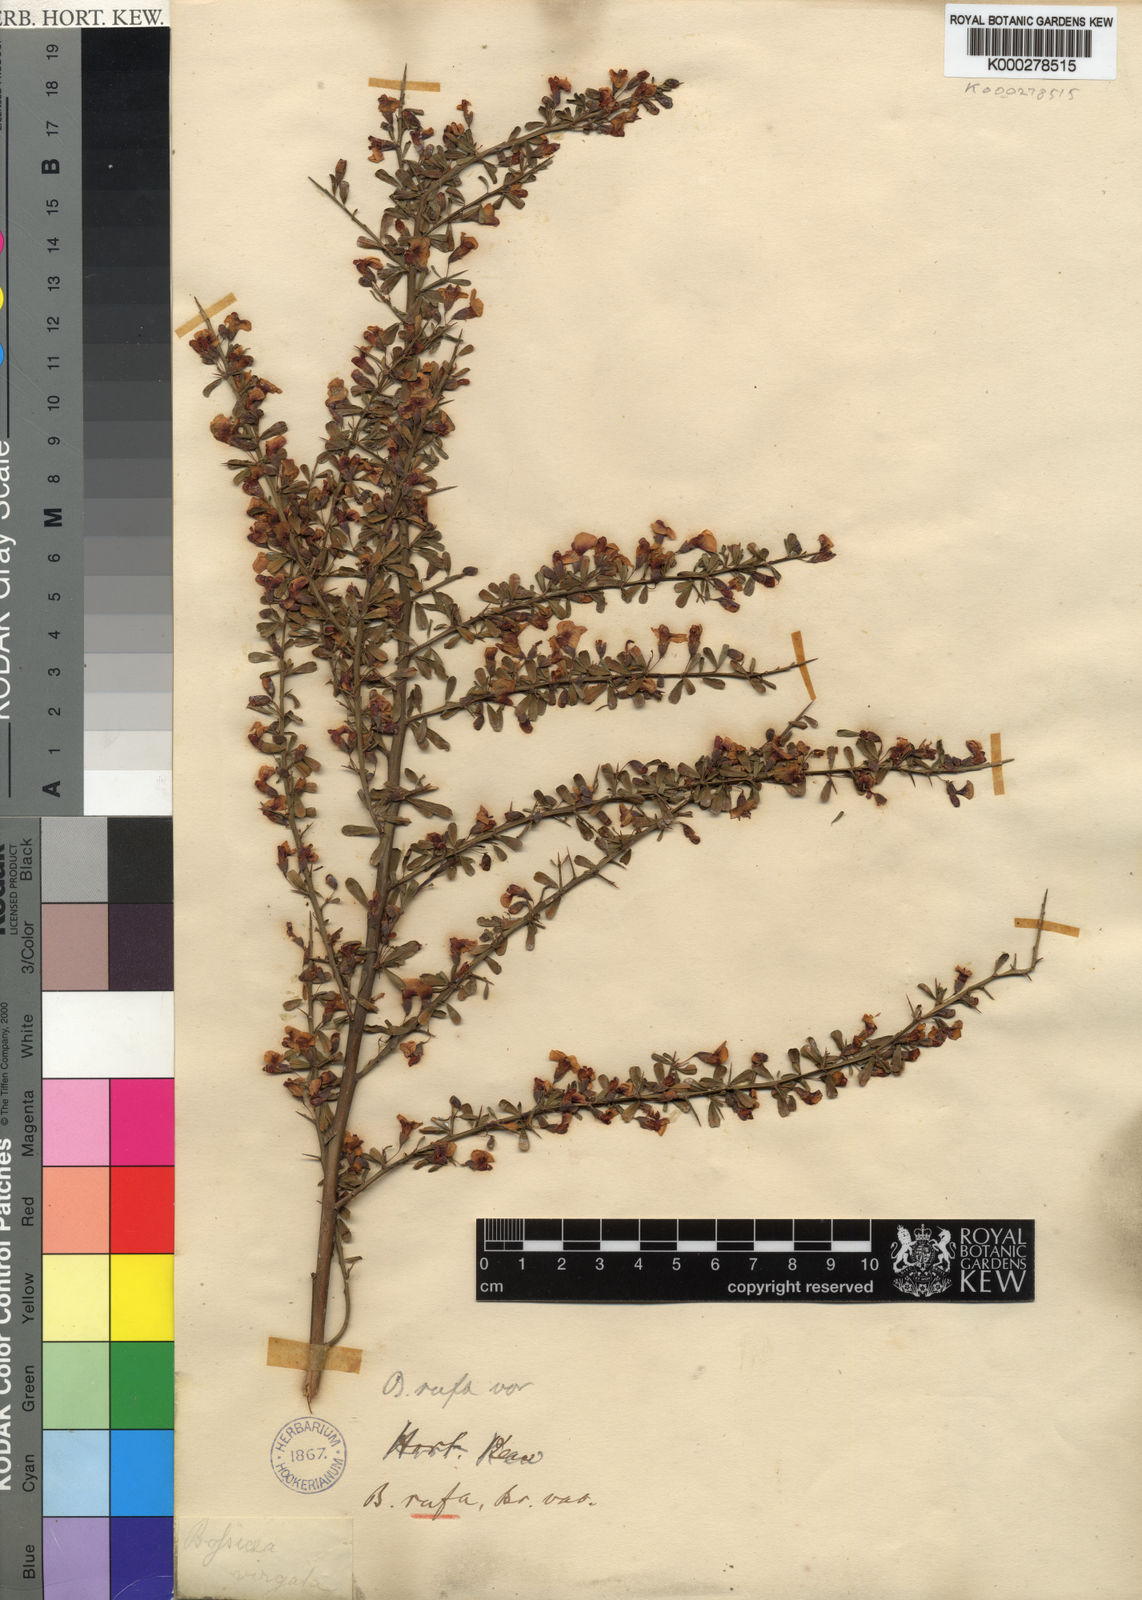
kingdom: Plantae
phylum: Tracheophyta
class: Magnoliopsida
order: Fabales
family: Fabaceae
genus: Bossiaea
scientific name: Bossiaea rufa
